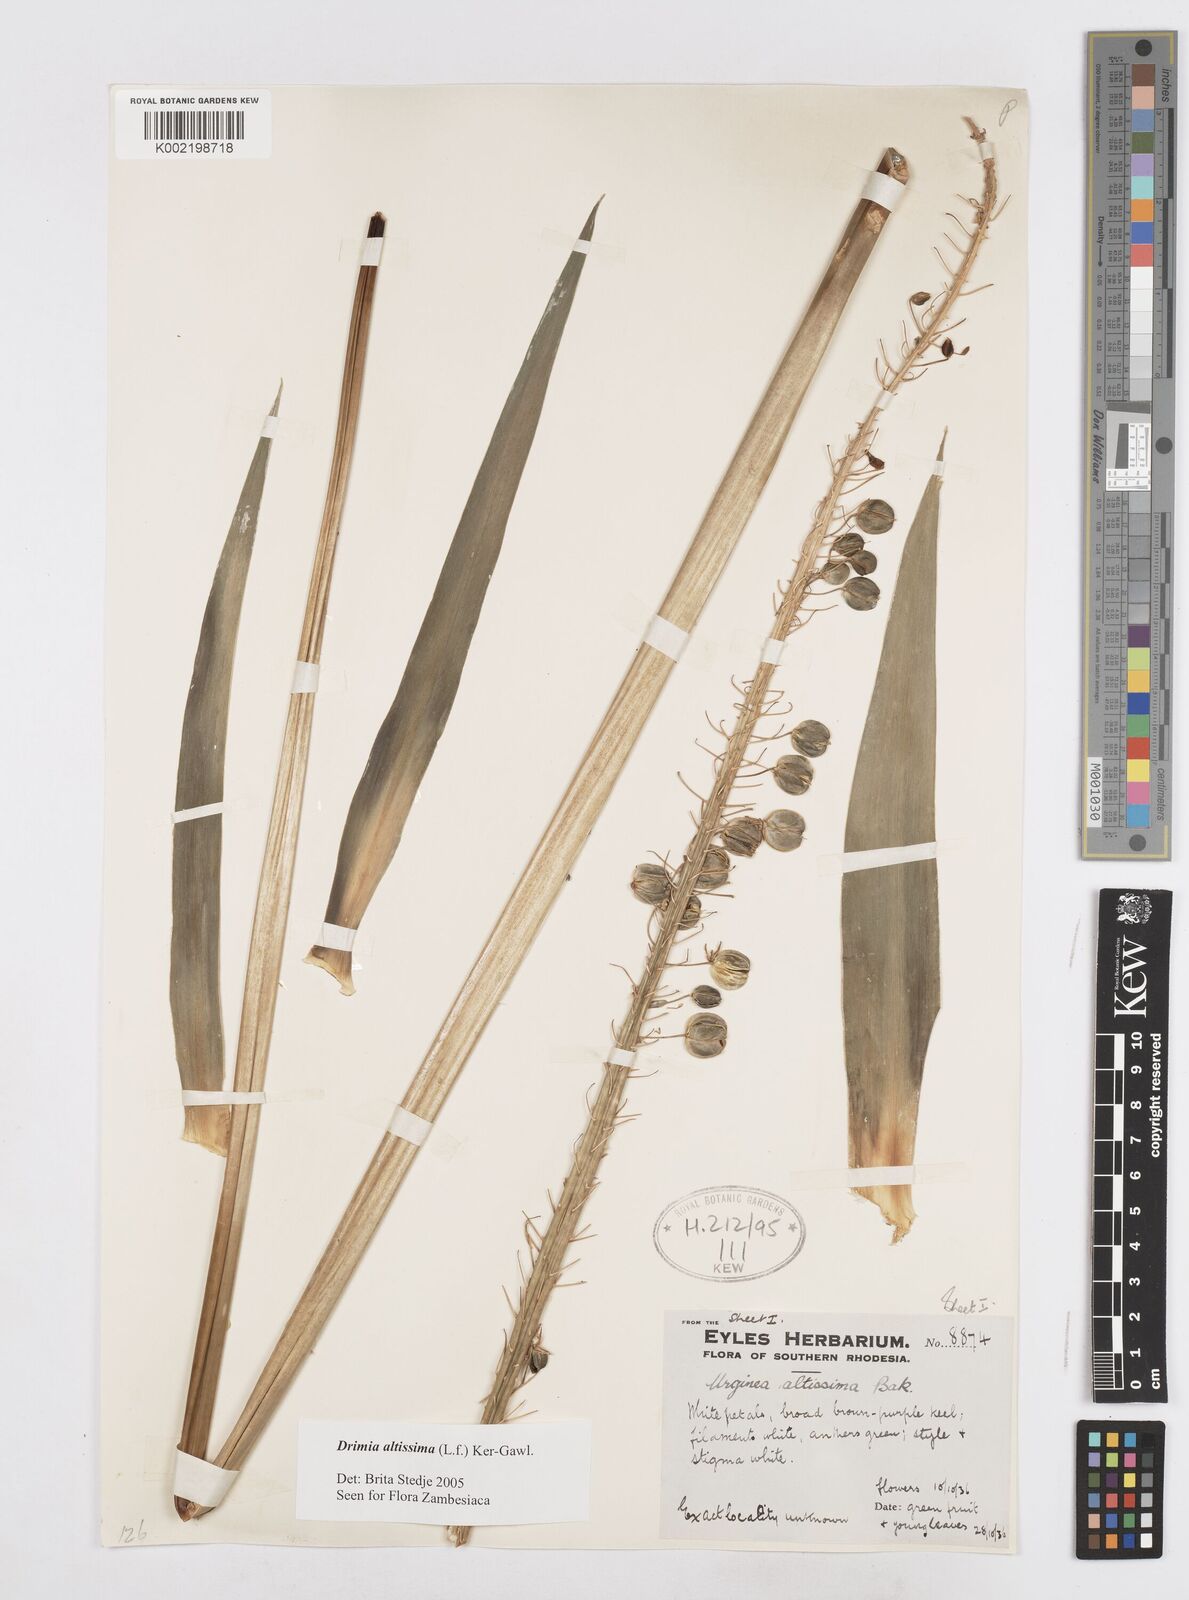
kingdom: Plantae
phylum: Tracheophyta
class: Liliopsida
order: Asparagales
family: Asparagaceae
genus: Drimia
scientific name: Drimia
